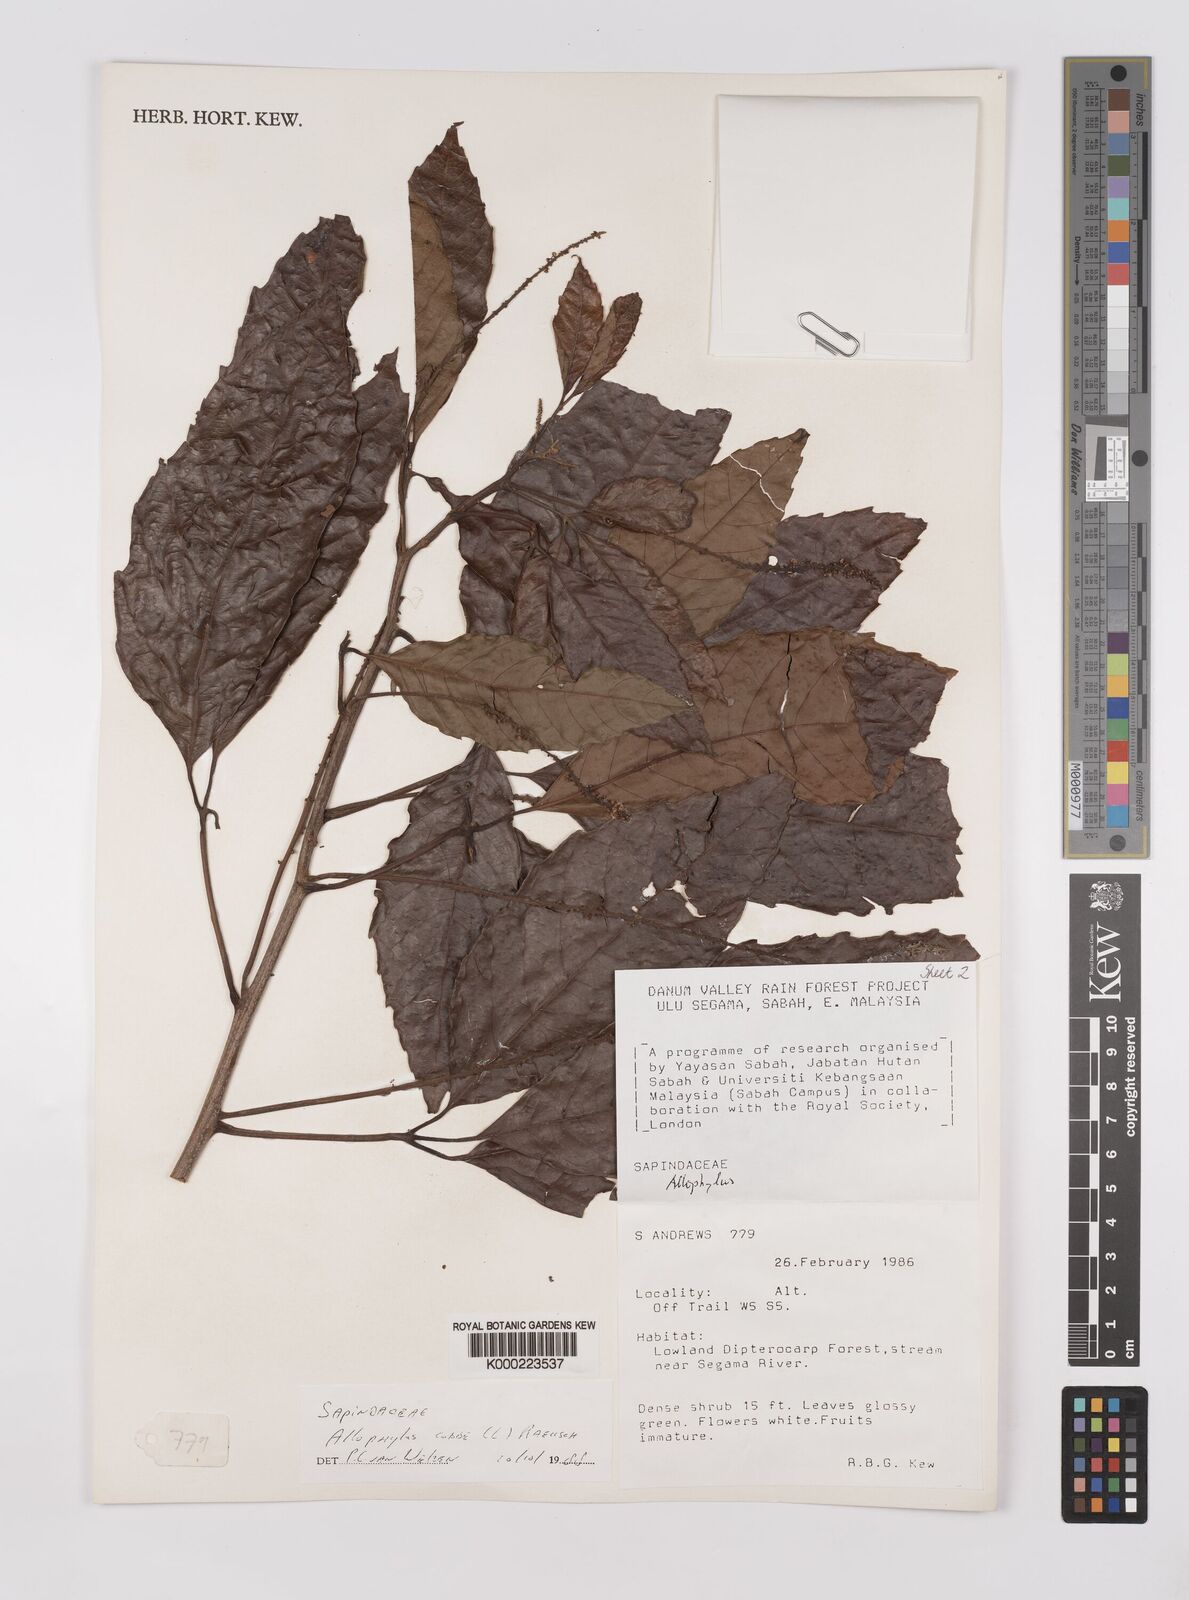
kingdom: Plantae
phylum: Tracheophyta
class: Magnoliopsida
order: Sapindales
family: Sapindaceae
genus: Allophylus
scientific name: Allophylus
